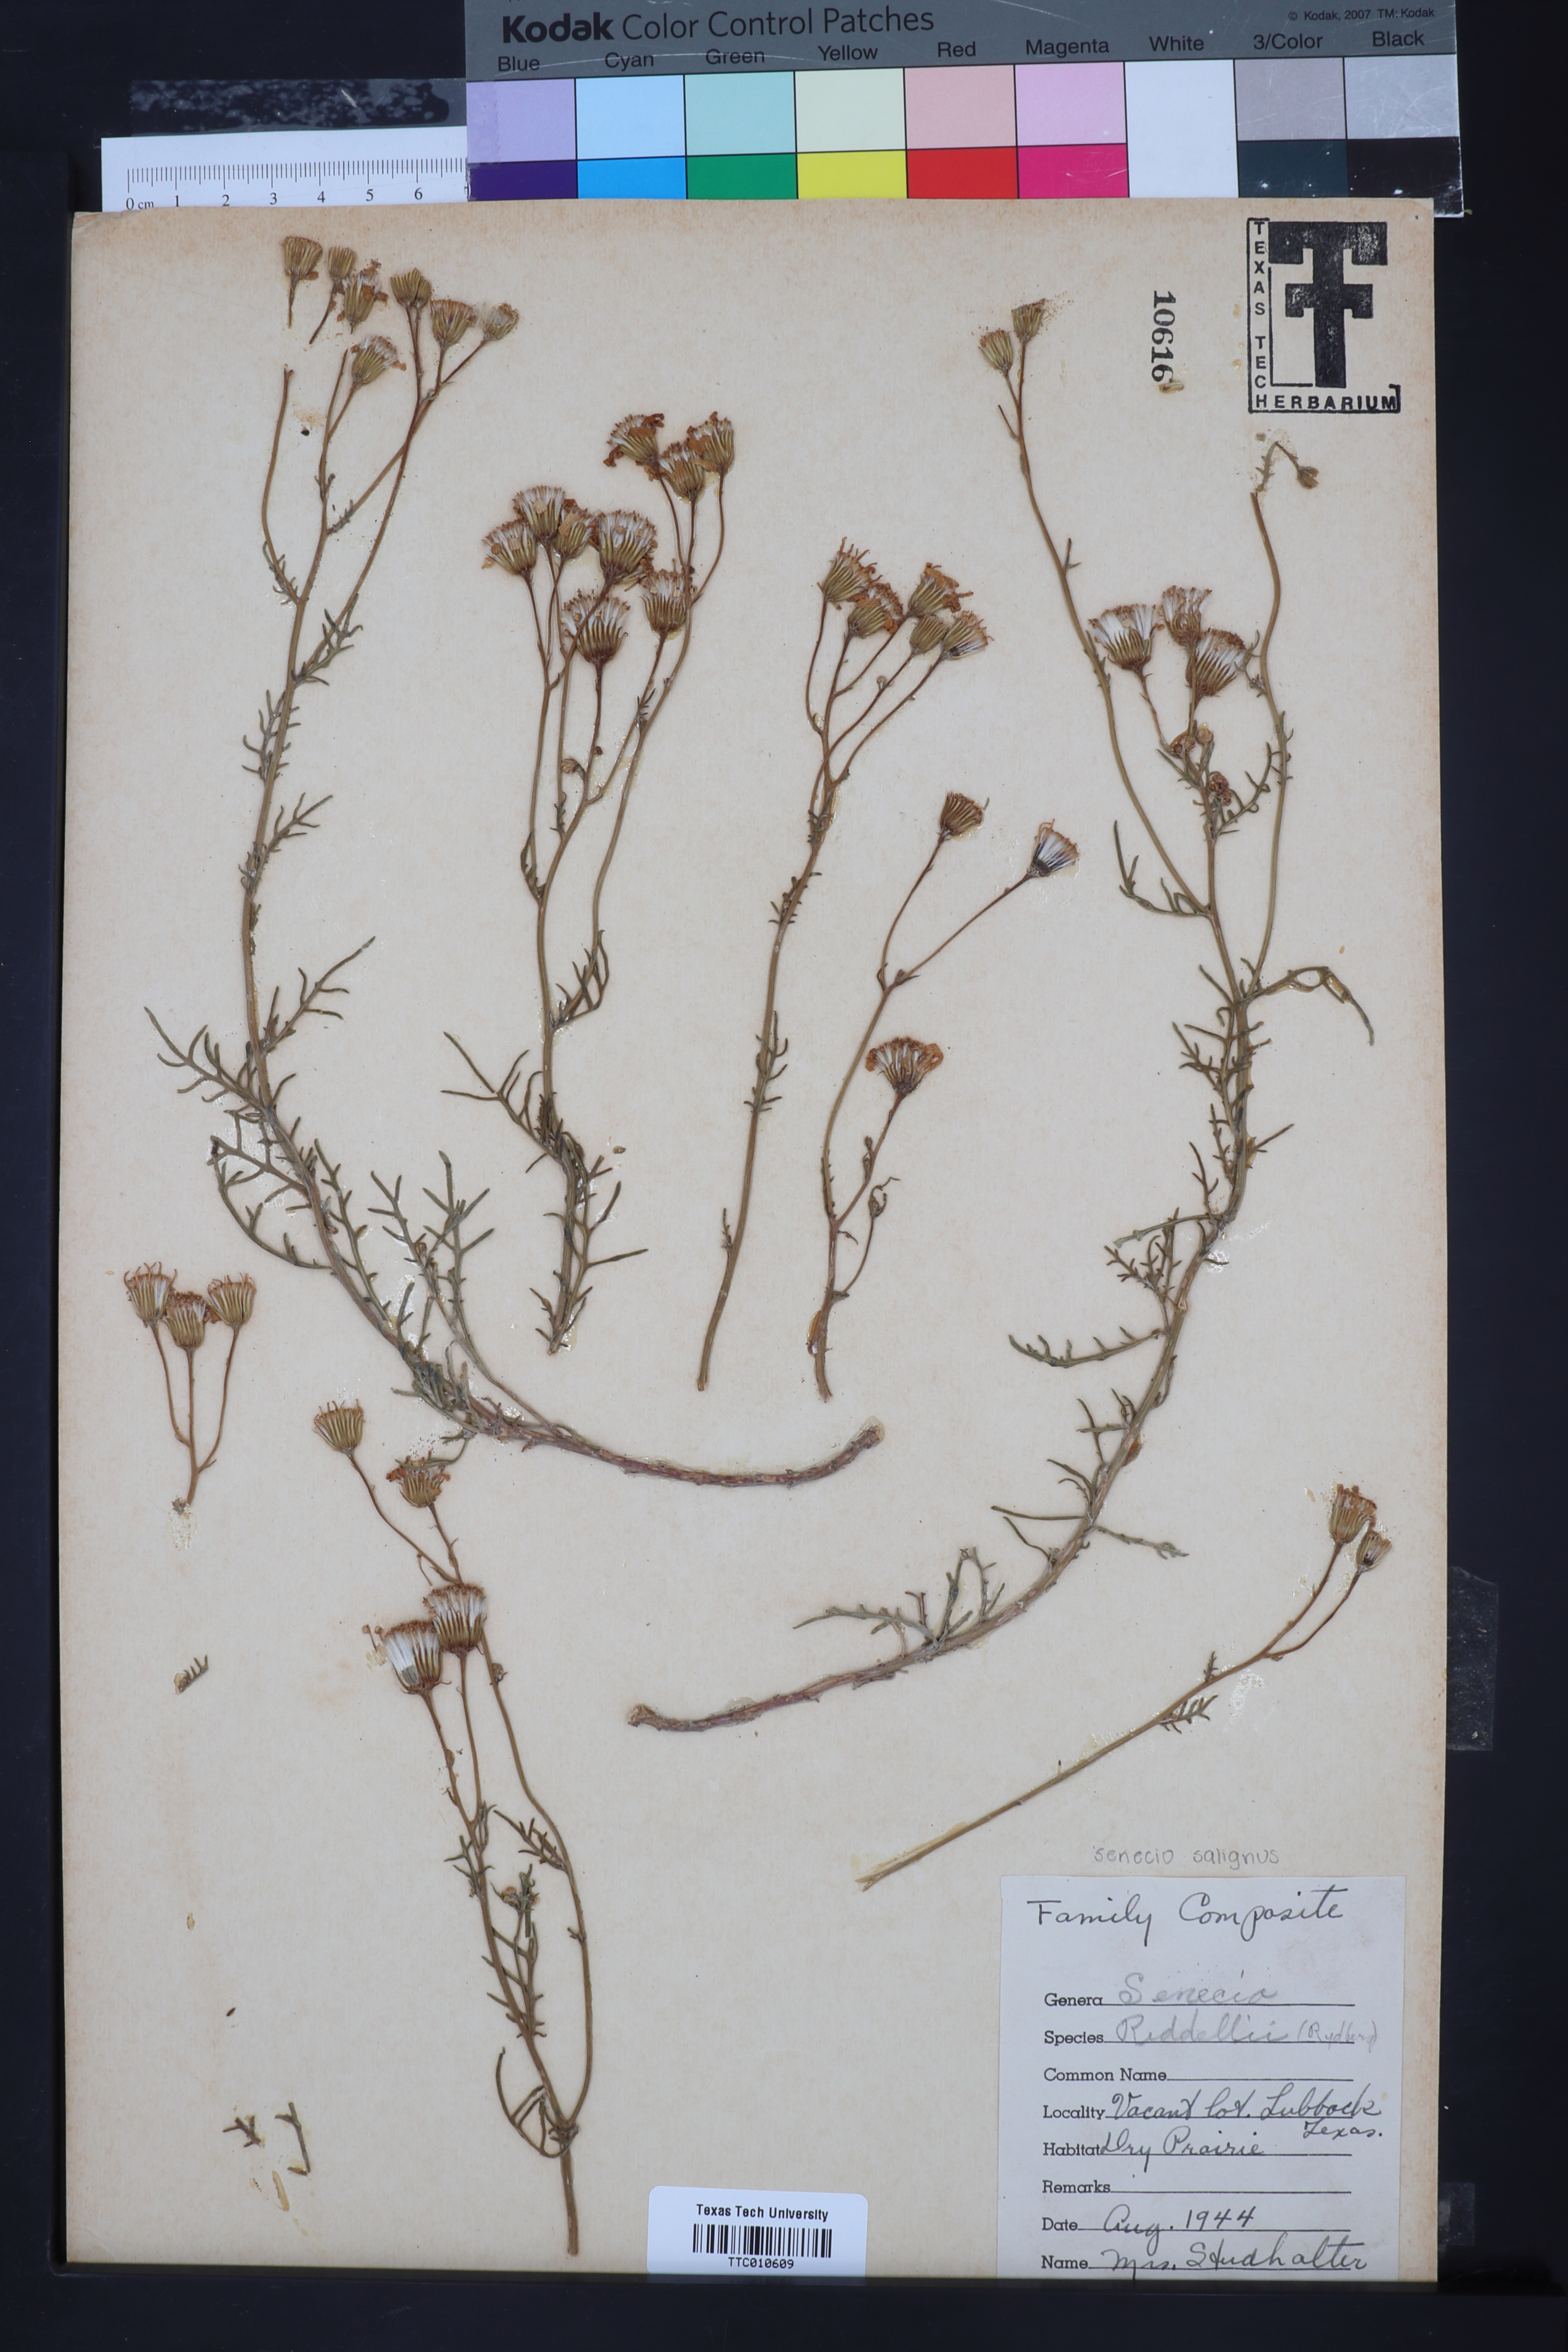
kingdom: Plantae
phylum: Tracheophyta
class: Magnoliopsida
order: Asterales
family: Asteraceae
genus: Senecio
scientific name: Senecio riddellii
